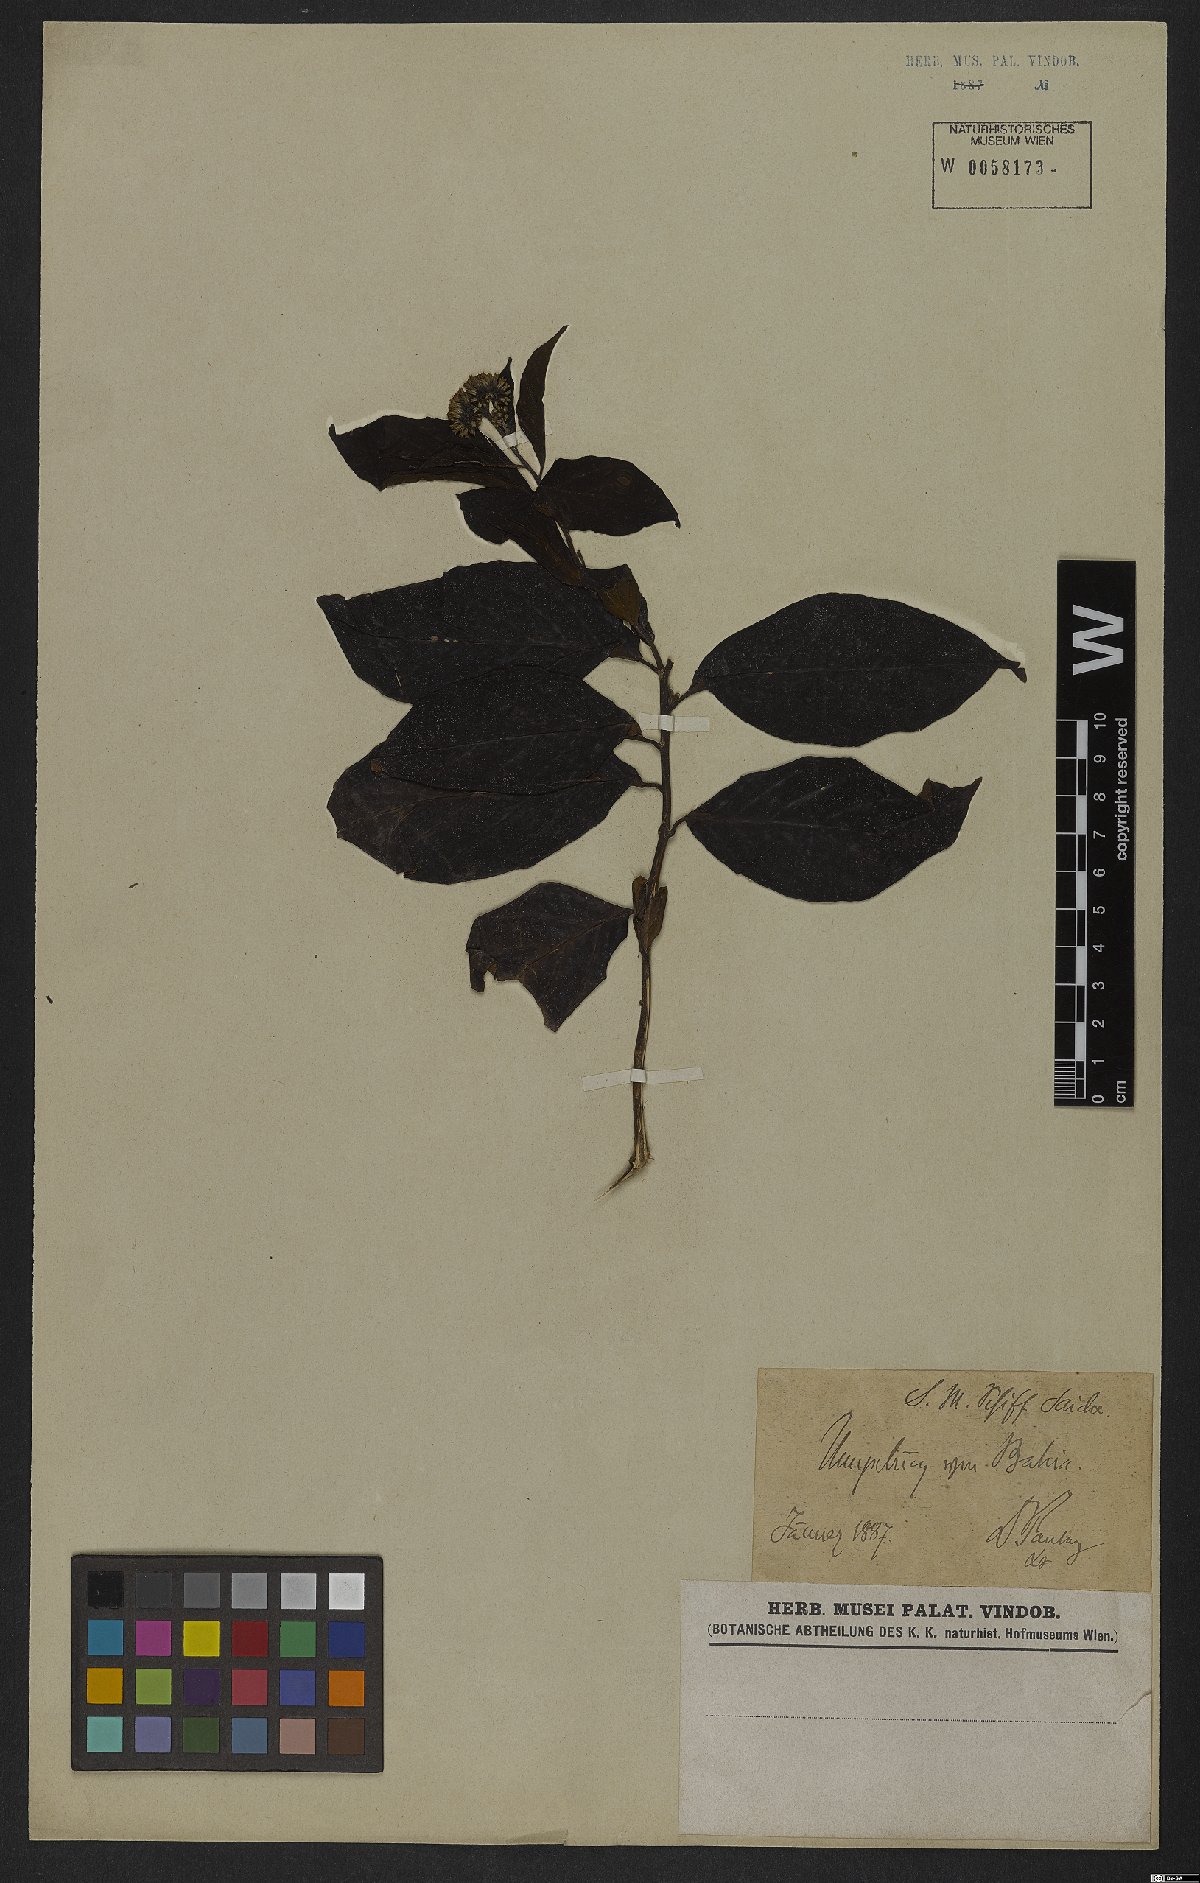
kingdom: Plantae
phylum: Tracheophyta
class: Magnoliopsida
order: Boraginales
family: Heliotropiaceae
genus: Heliotropium
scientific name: Heliotropium verdcourtii
